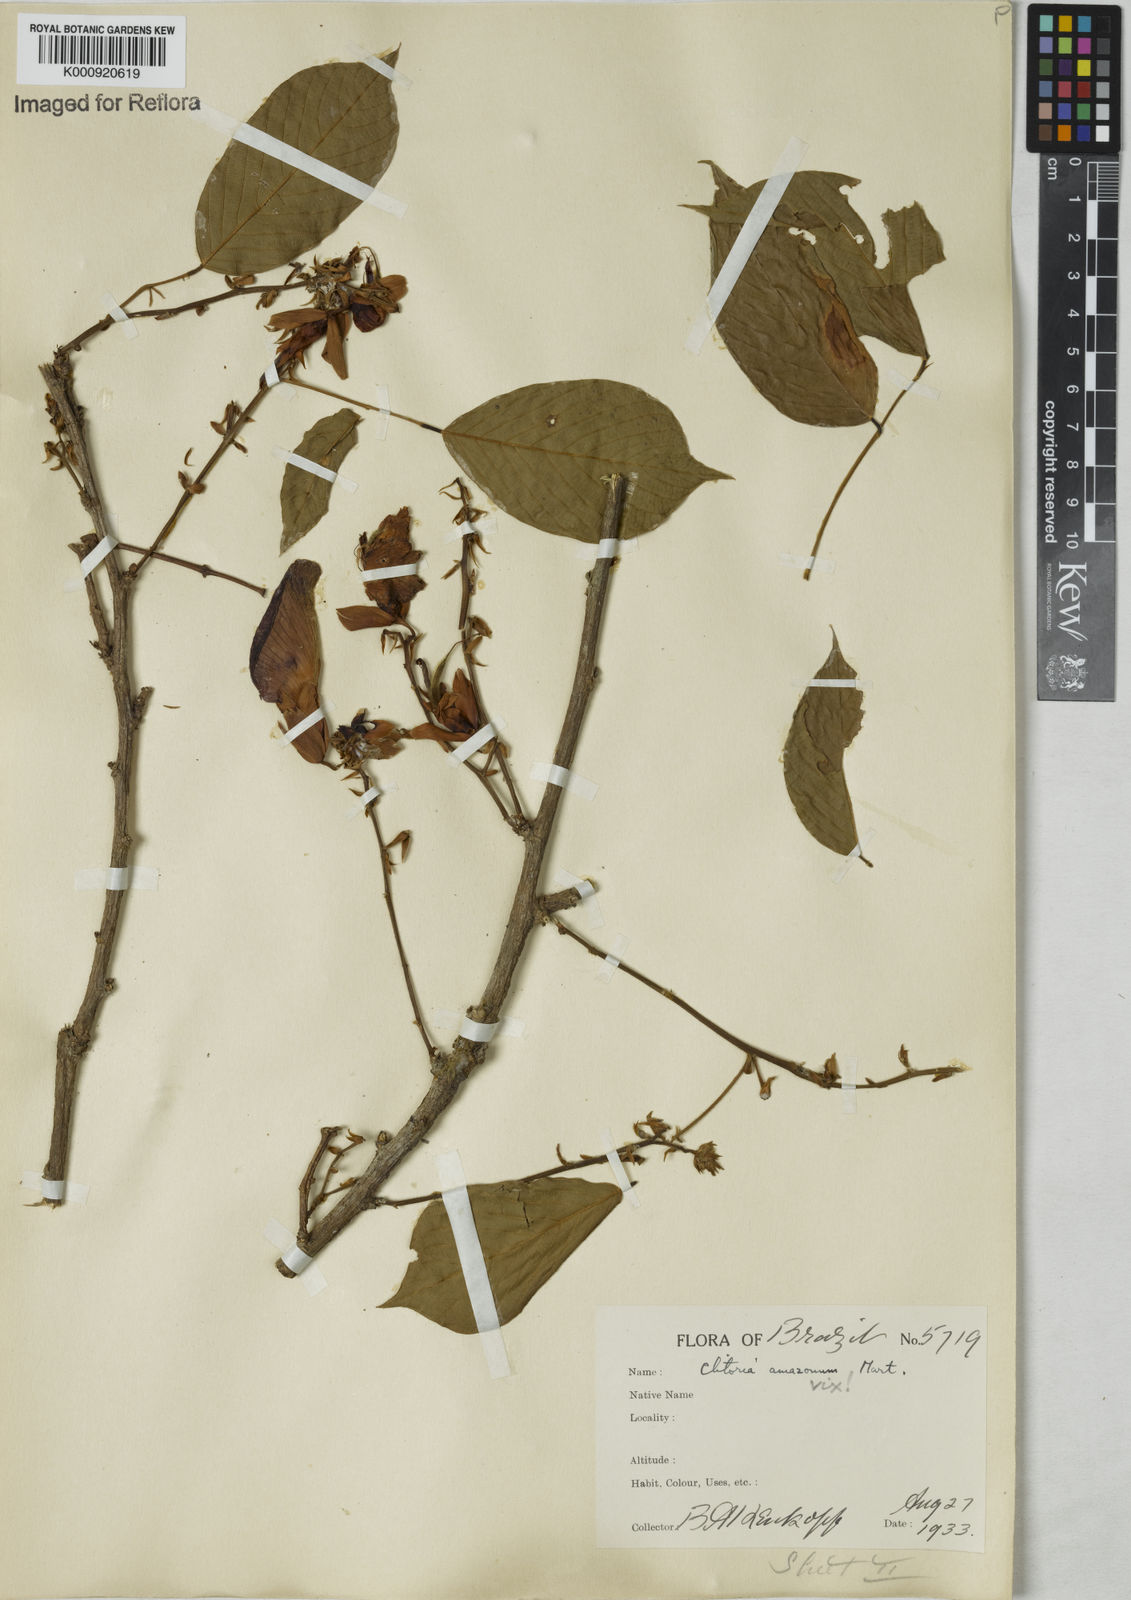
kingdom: Plantae
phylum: Tracheophyta
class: Magnoliopsida
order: Fabales
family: Fabaceae
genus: Clitoria
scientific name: Clitoria amazonum
